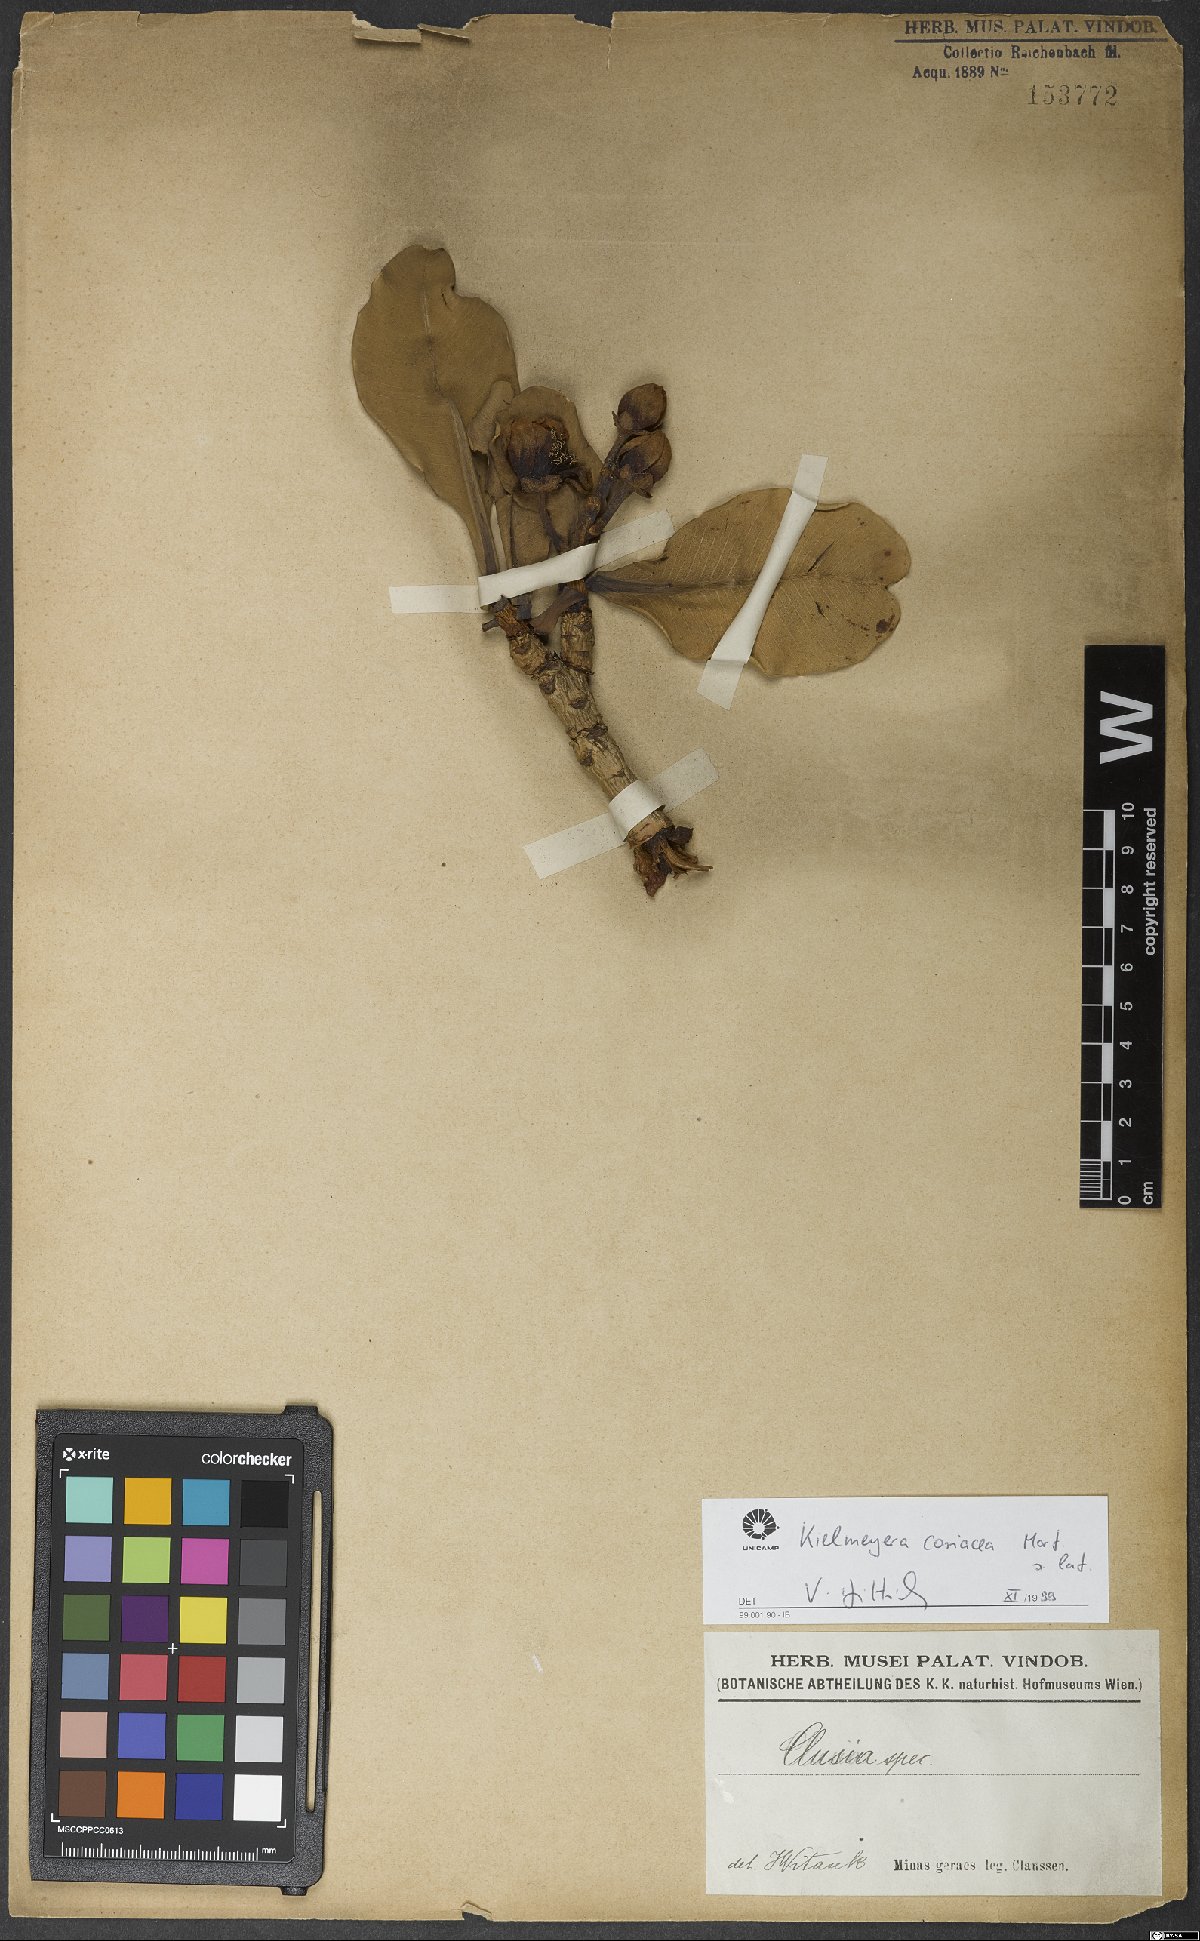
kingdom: Plantae
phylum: Tracheophyta
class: Magnoliopsida
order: Malpighiales
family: Calophyllaceae
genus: Kielmeyera
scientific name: Kielmeyera coriacea
